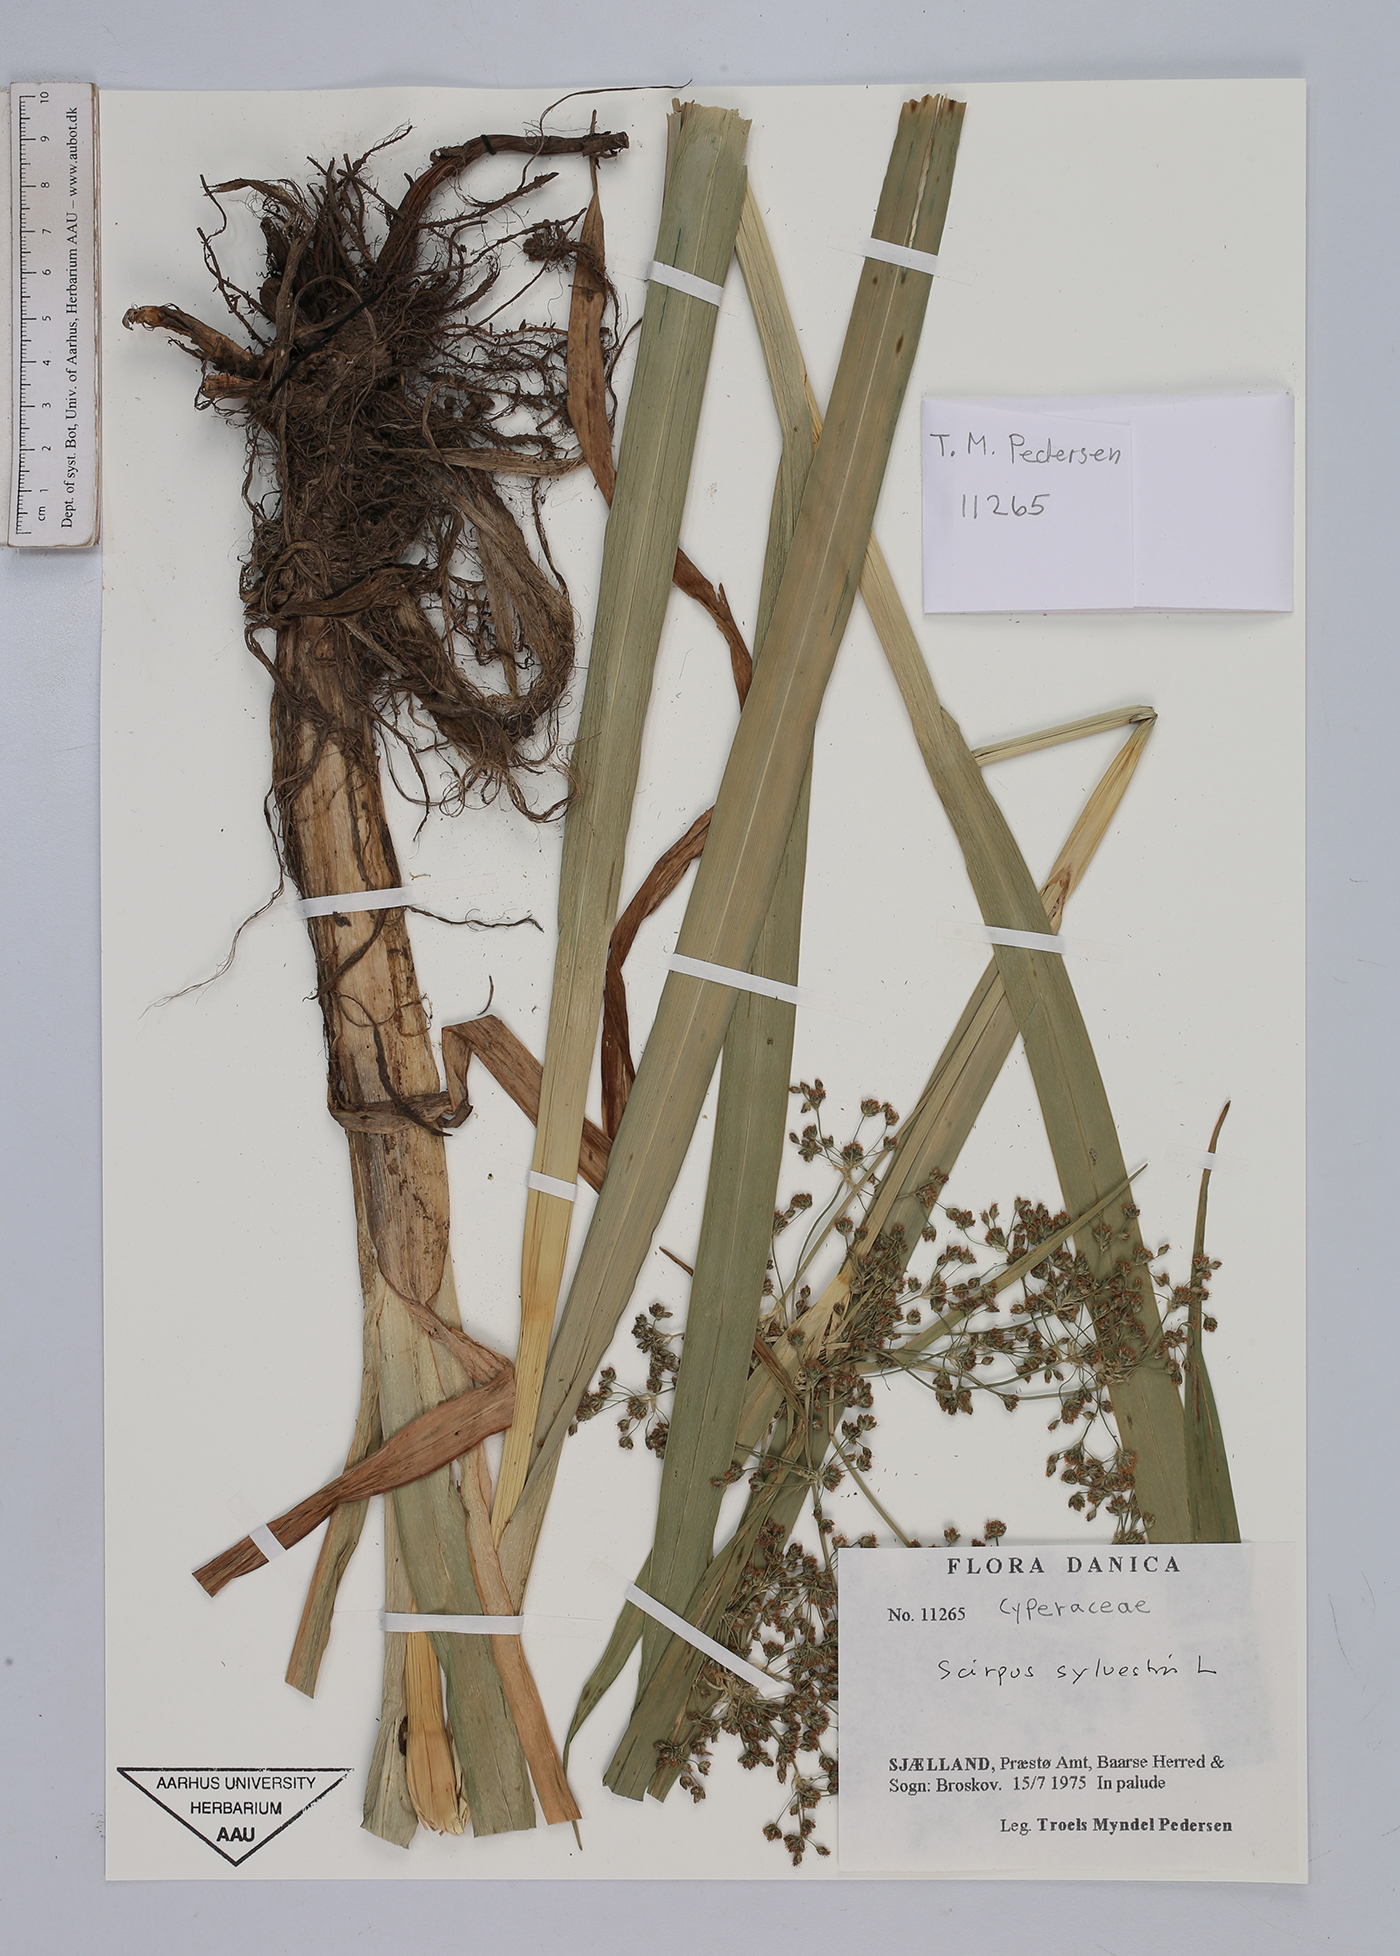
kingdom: Plantae
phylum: Tracheophyta
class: Liliopsida
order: Poales
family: Cyperaceae
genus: Scirpus
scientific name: Scirpus sylvaticus
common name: Wood club-rush
